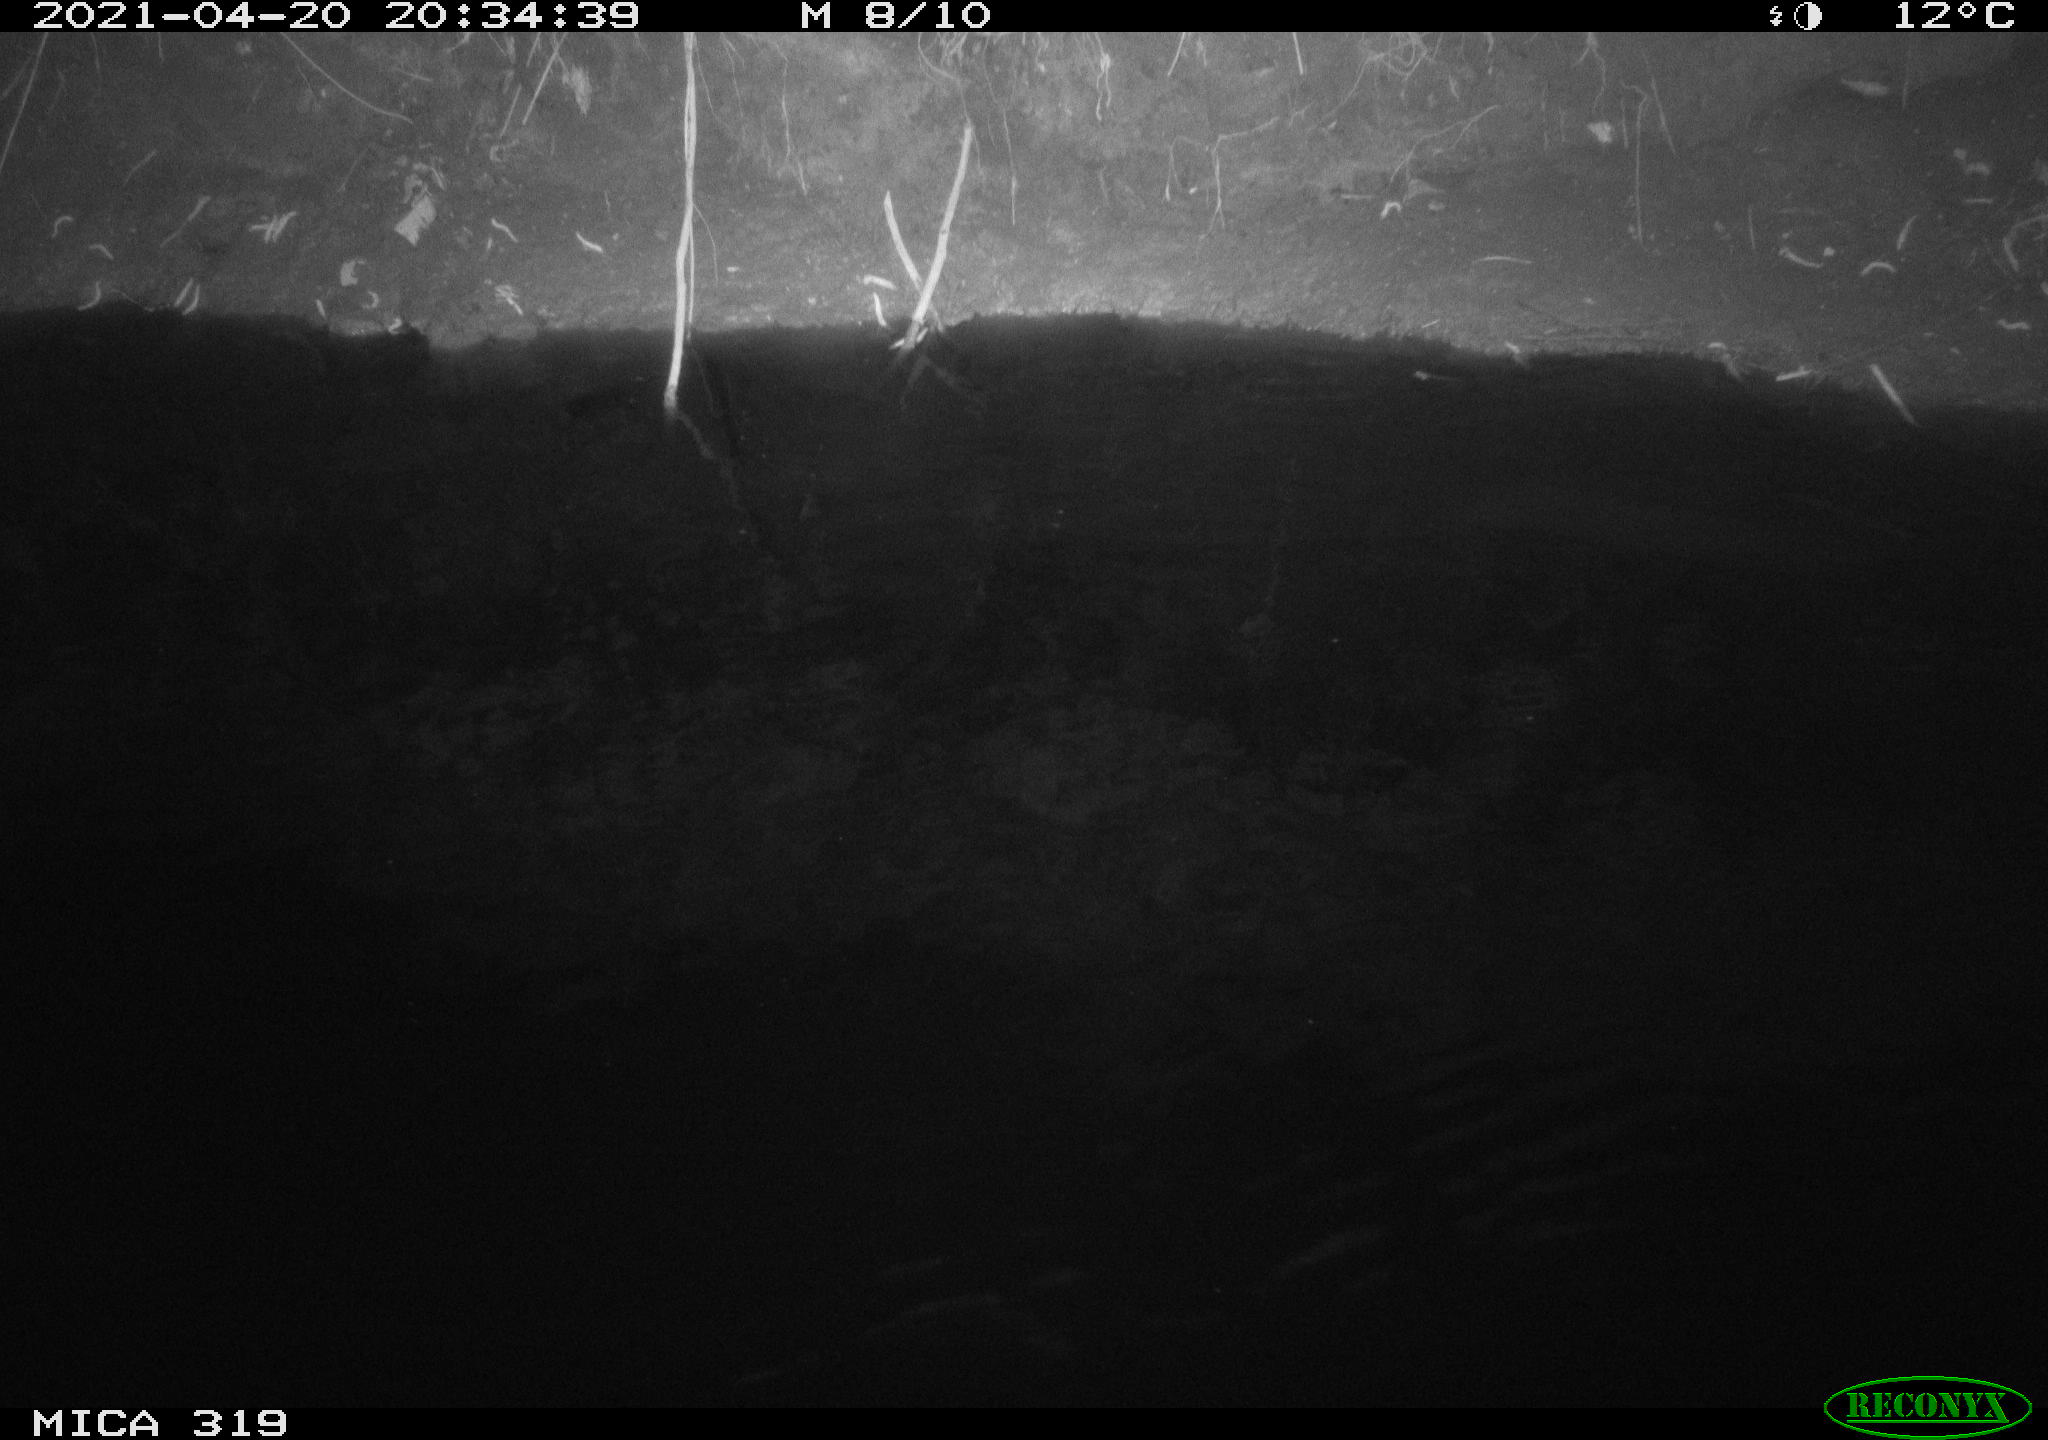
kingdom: Animalia
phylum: Chordata
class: Aves
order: Anseriformes
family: Anatidae
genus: Anas
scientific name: Anas platyrhynchos
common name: Mallard
